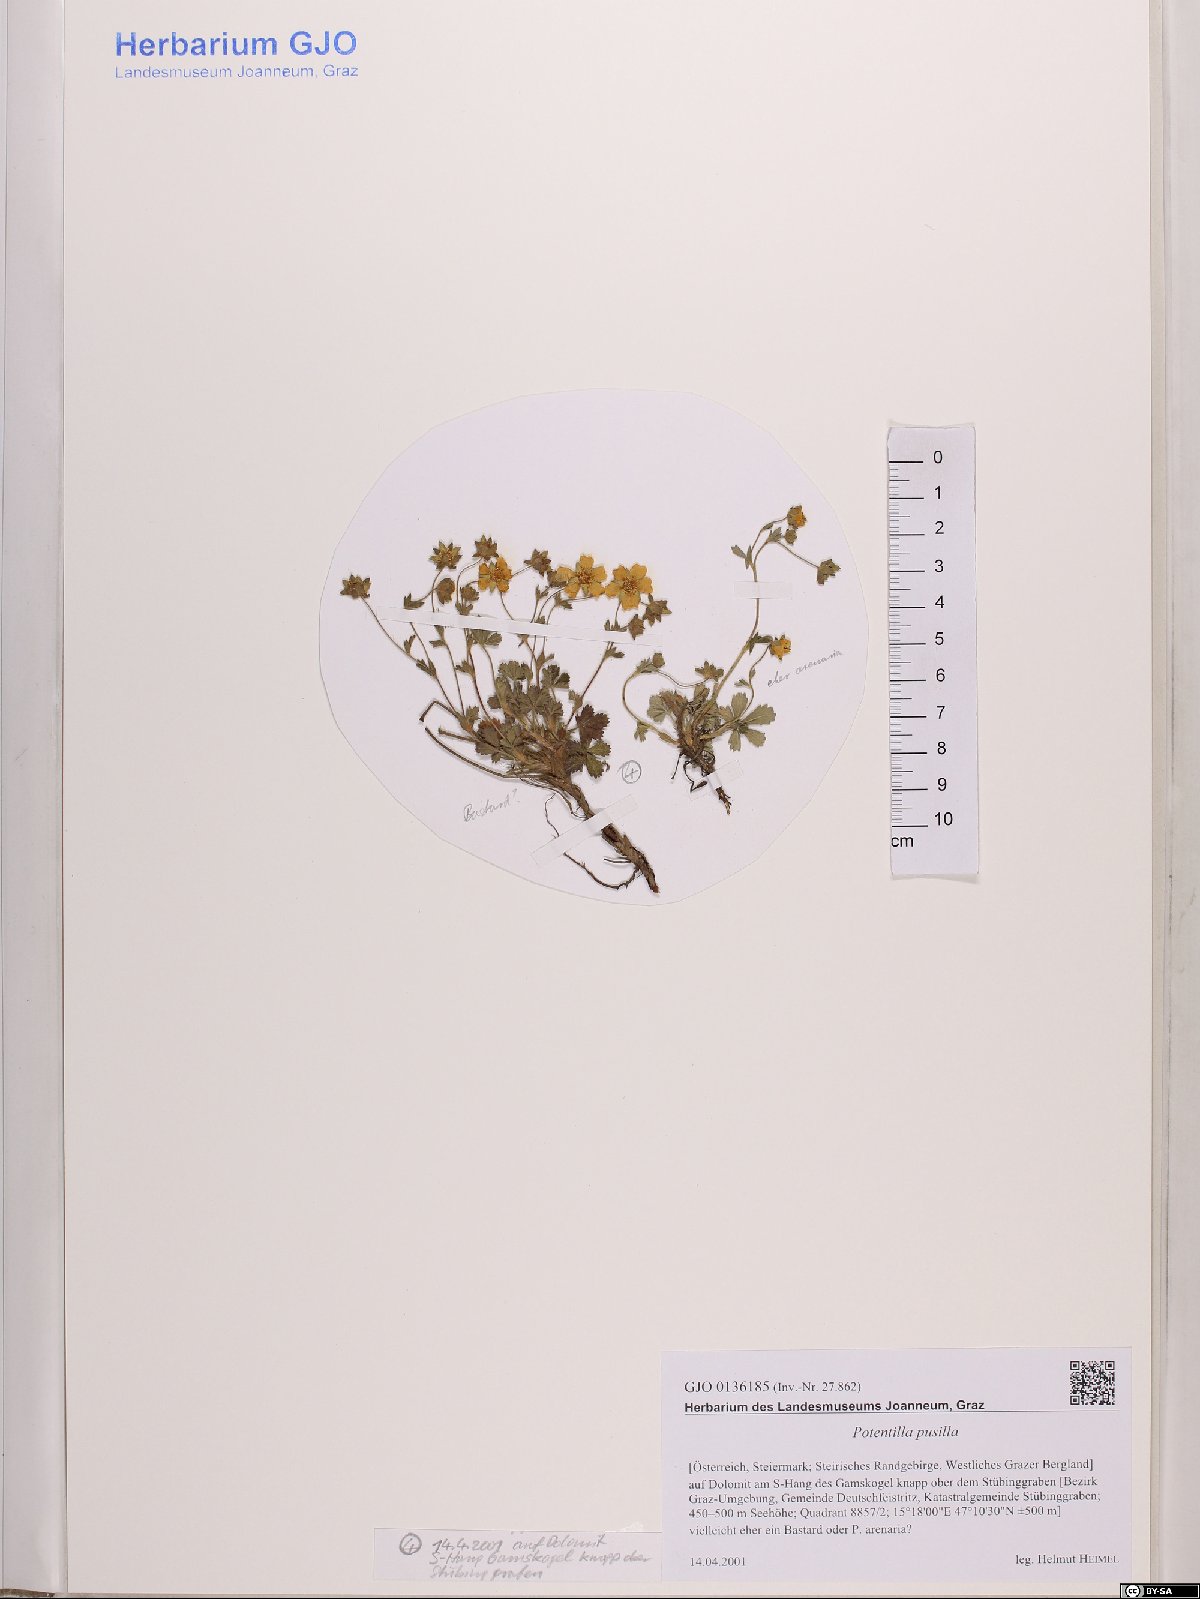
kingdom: Plantae
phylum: Tracheophyta
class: Magnoliopsida
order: Rosales
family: Rosaceae
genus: Potentilla
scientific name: Potentilla pusilla
